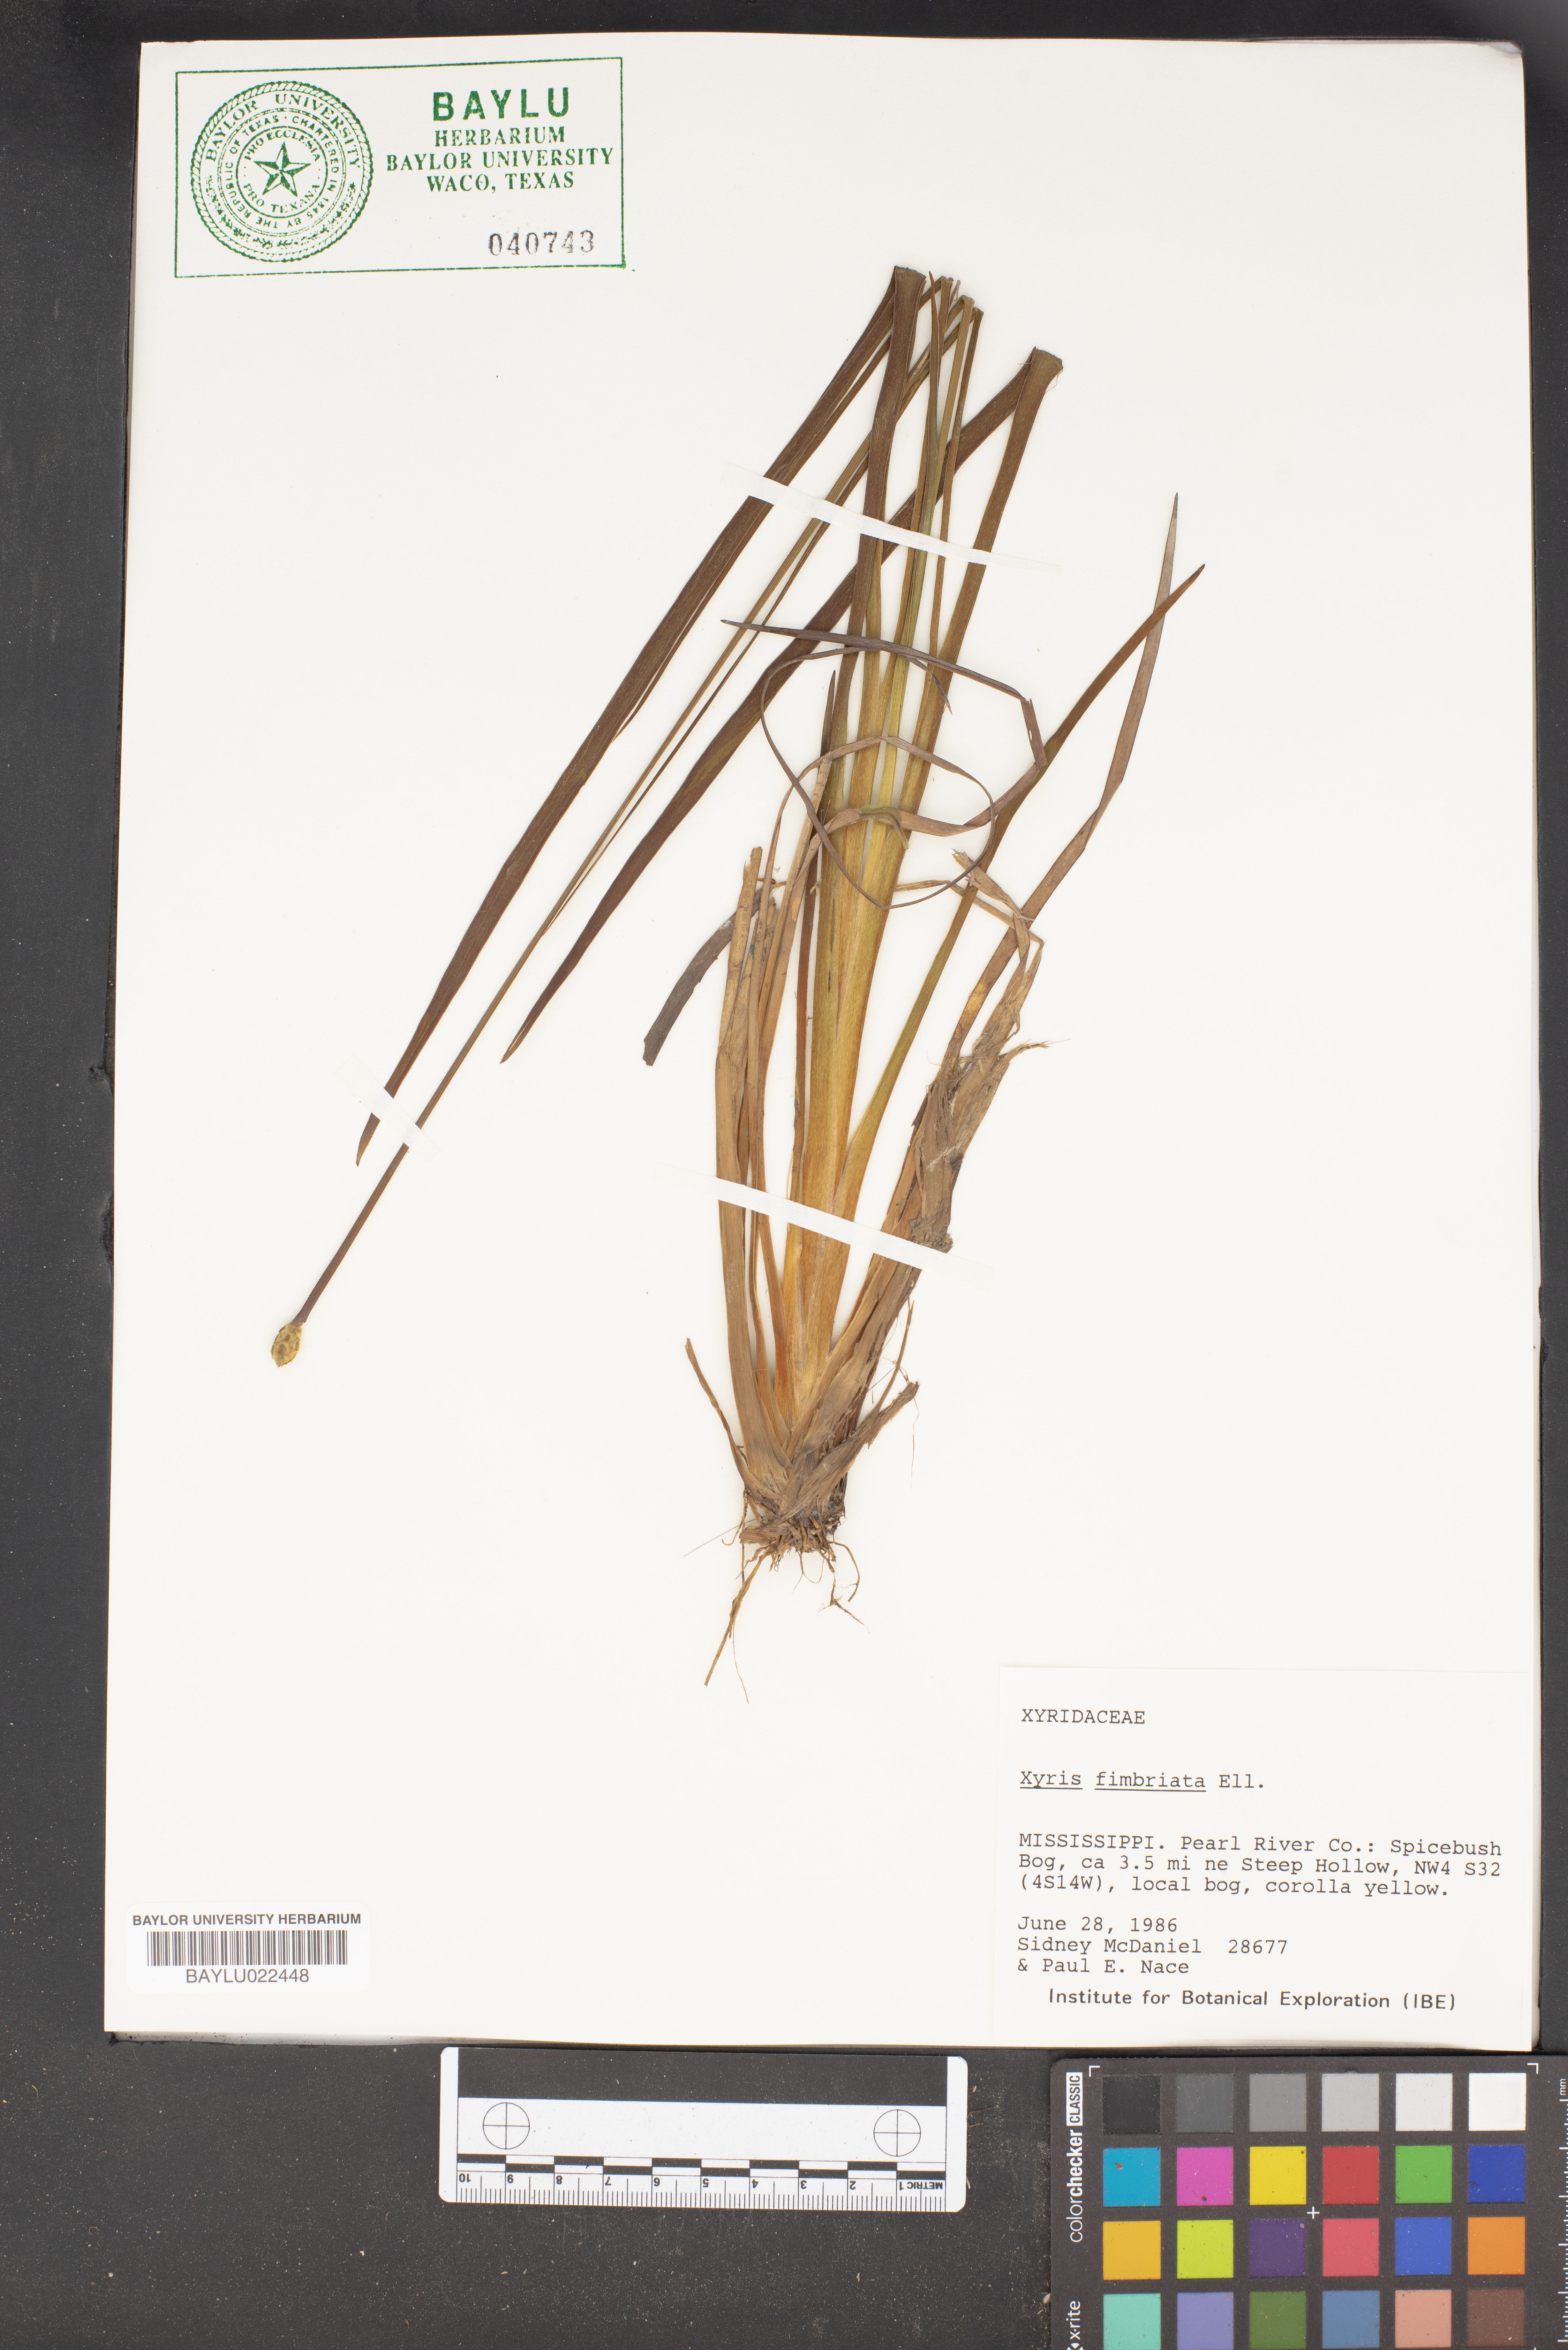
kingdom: Plantae
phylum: Tracheophyta
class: Liliopsida
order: Poales
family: Xyridaceae
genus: Xyris
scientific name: Xyris fimbriata
